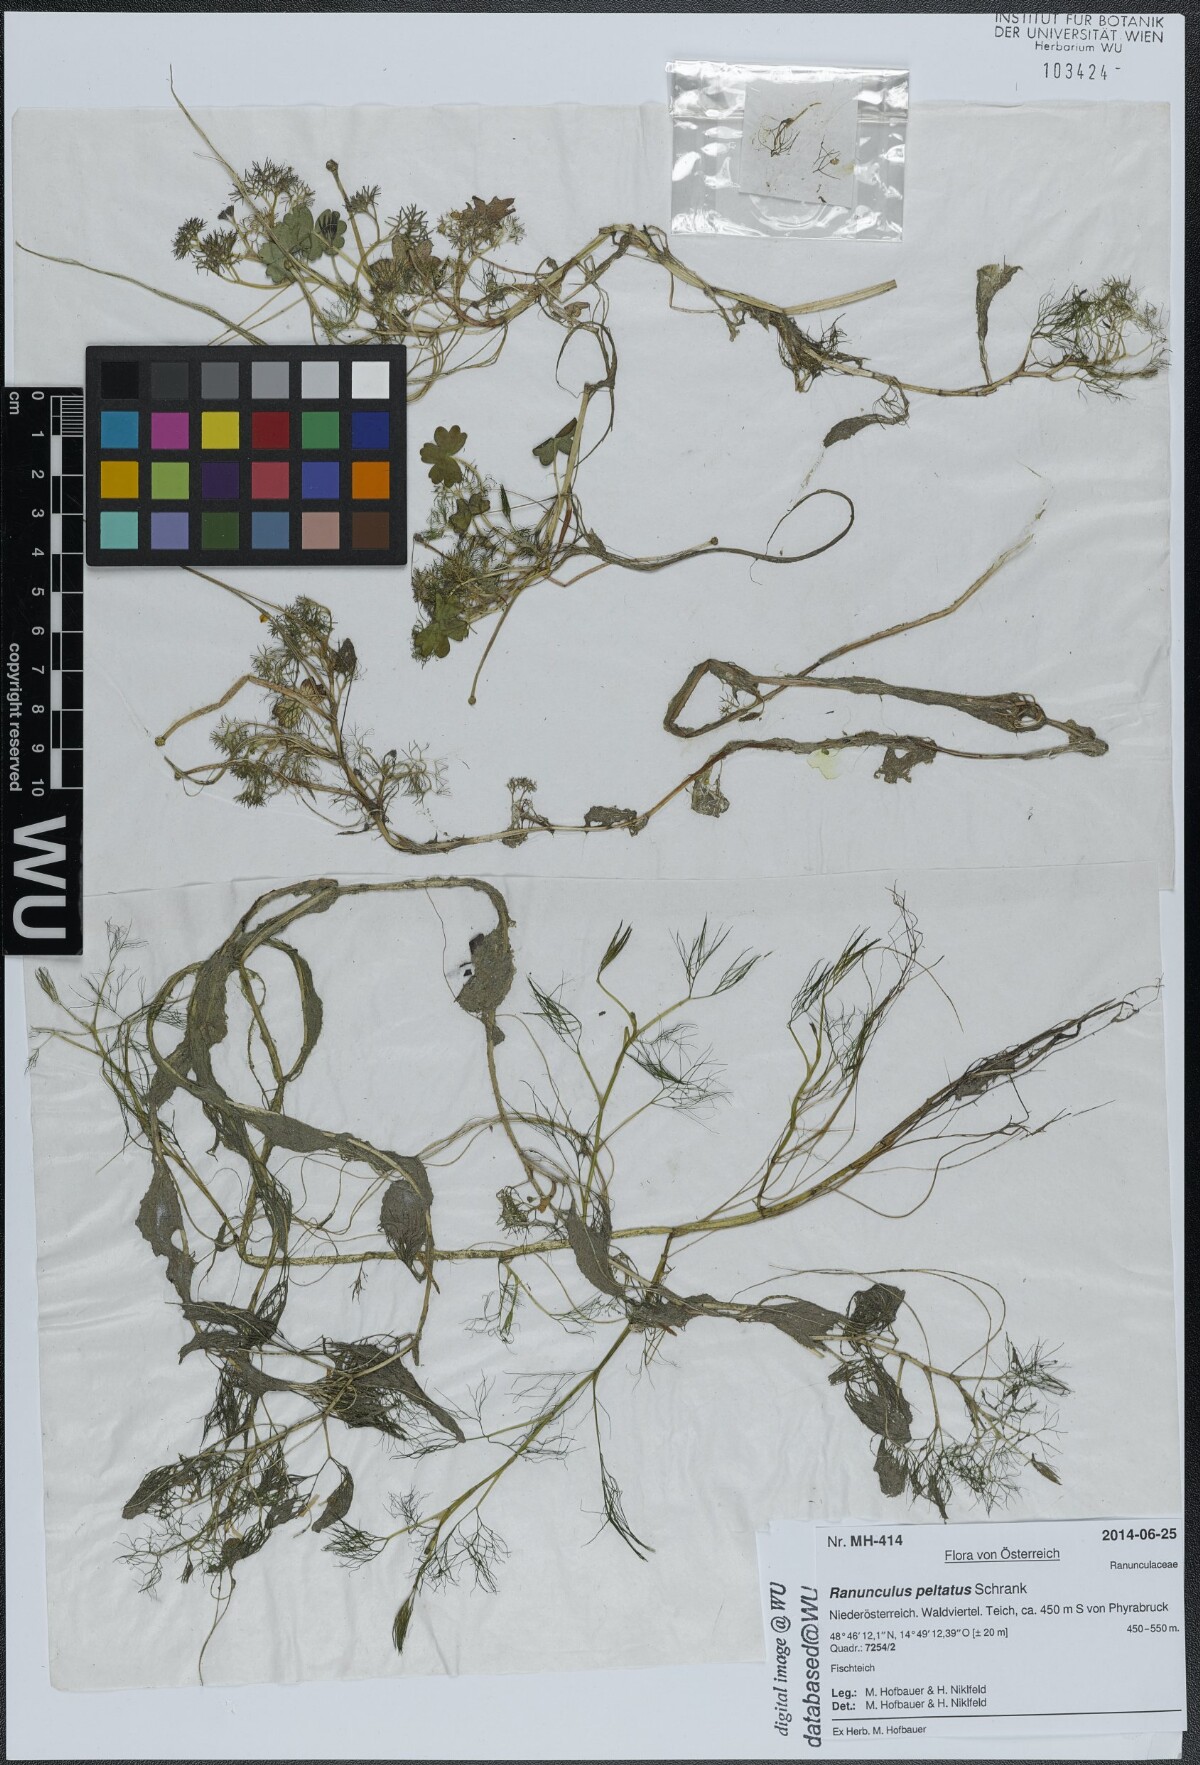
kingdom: Plantae
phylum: Tracheophyta
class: Magnoliopsida
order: Ranunculales
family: Ranunculaceae
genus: Ranunculus
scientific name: Ranunculus peltatus
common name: Pond water-crowfoot
